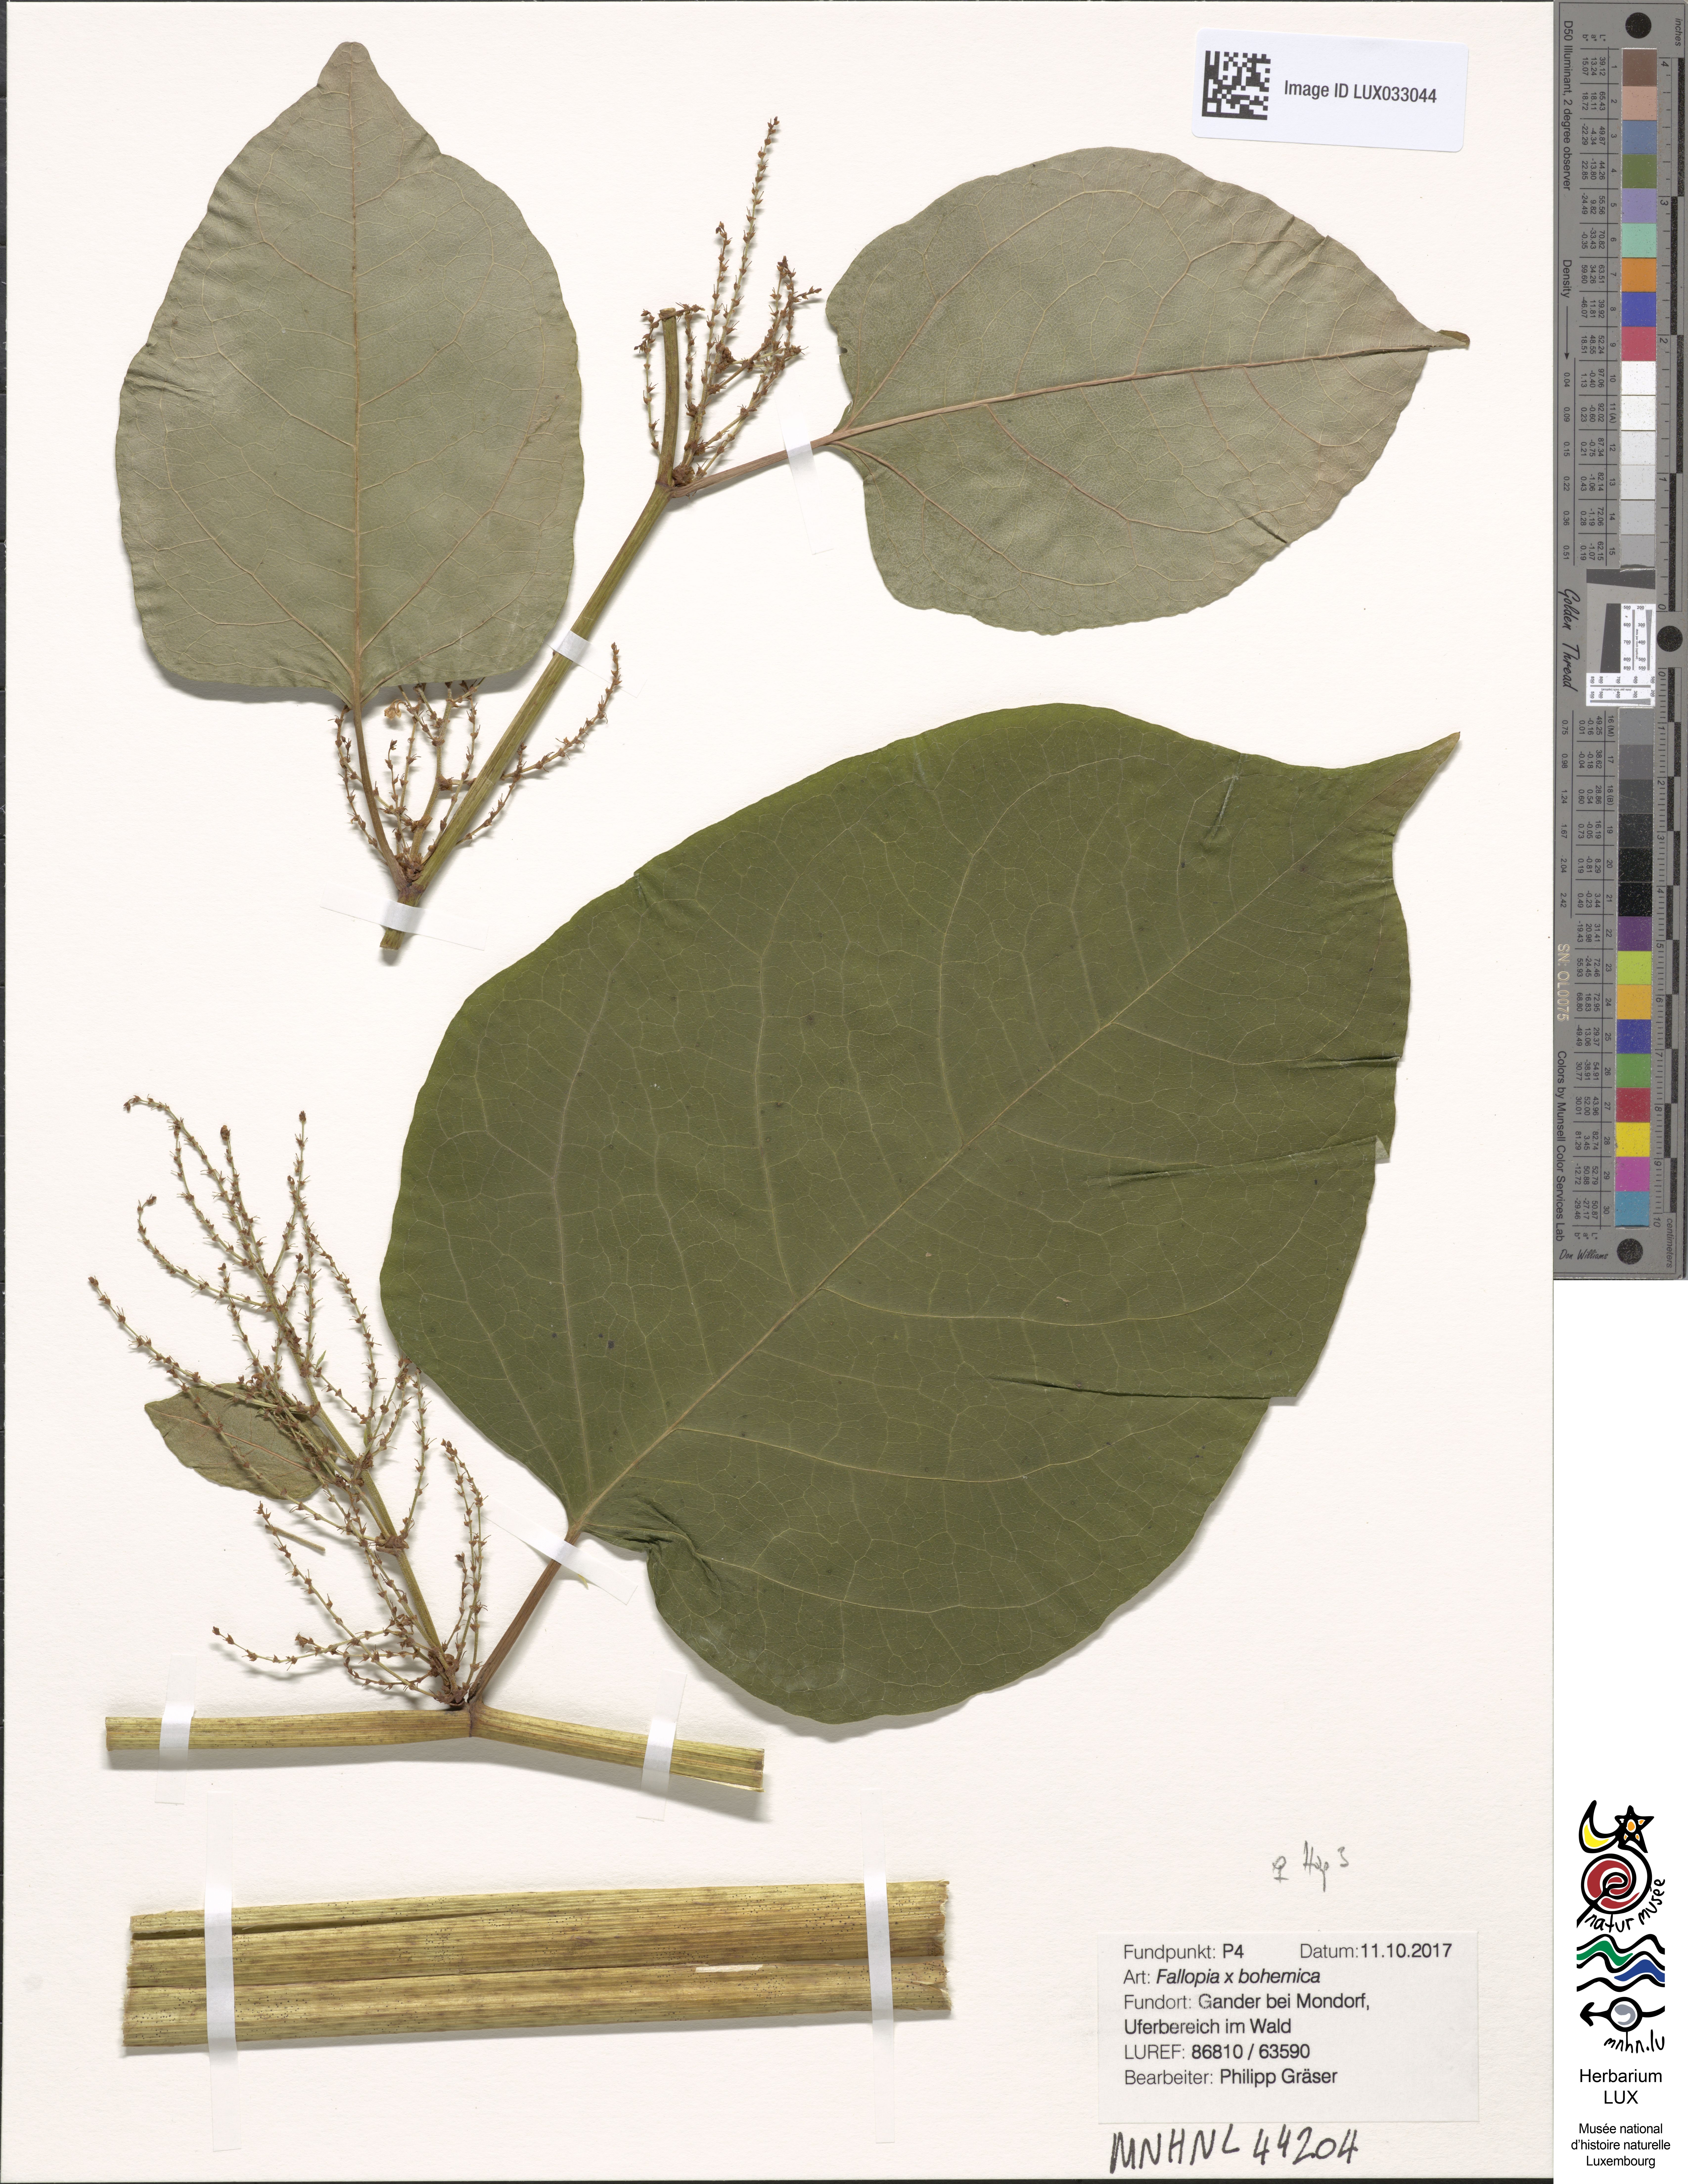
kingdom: Plantae
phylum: Tracheophyta
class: Magnoliopsida
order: Caryophyllales
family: Polygonaceae
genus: Reynoutria
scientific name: Reynoutria bohemica
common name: Bohemian knotweed
